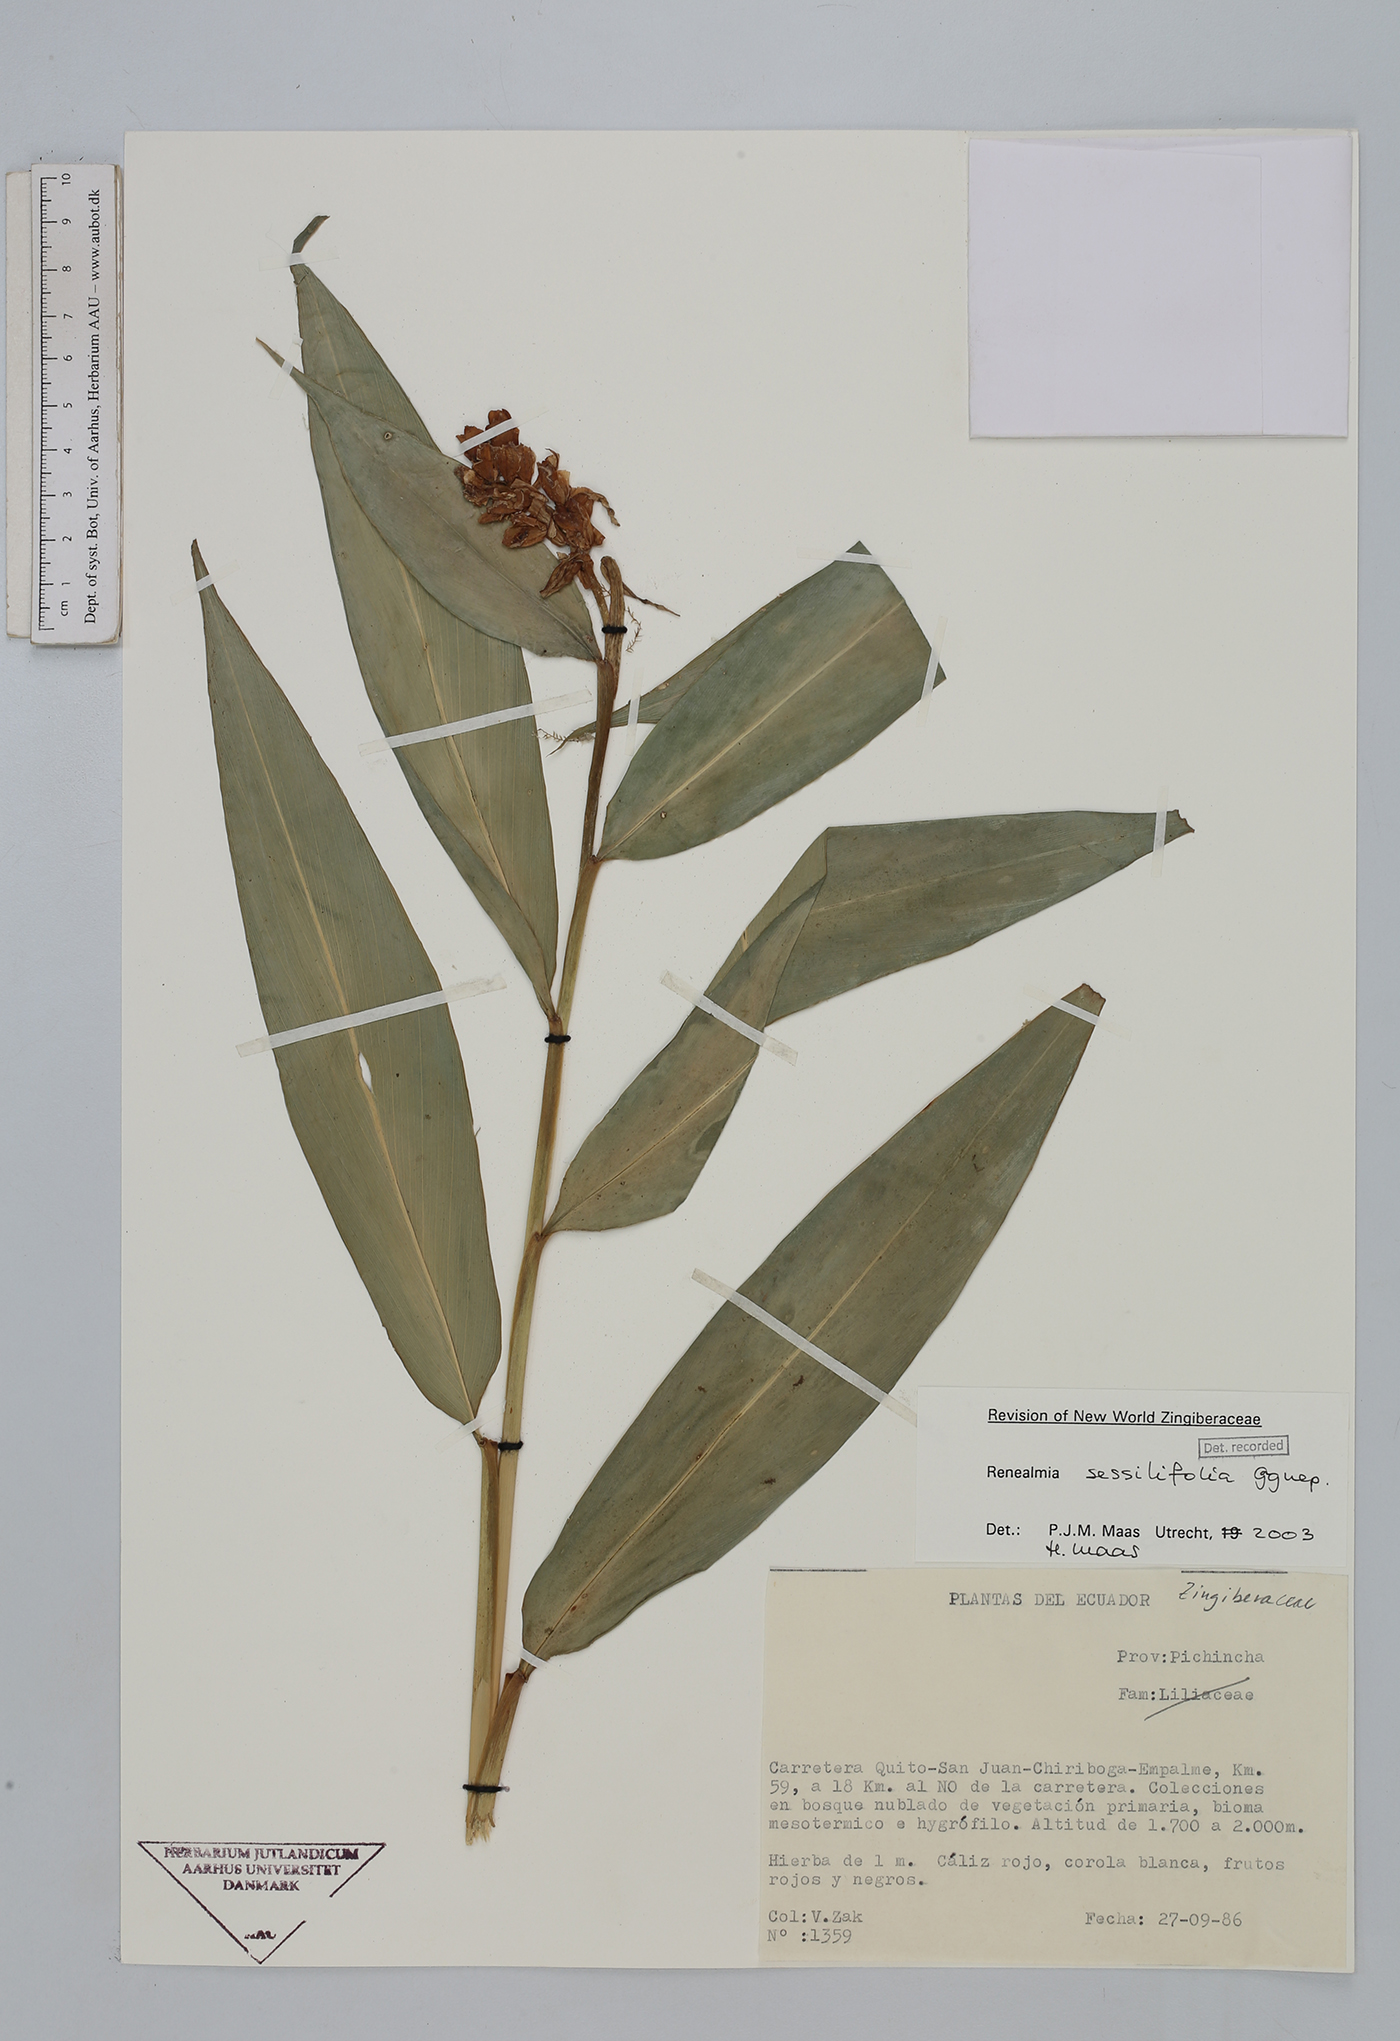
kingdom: Plantae
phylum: Tracheophyta
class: Liliopsida
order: Zingiberales
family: Zingiberaceae
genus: Renealmia
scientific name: Renealmia sessilifolia
